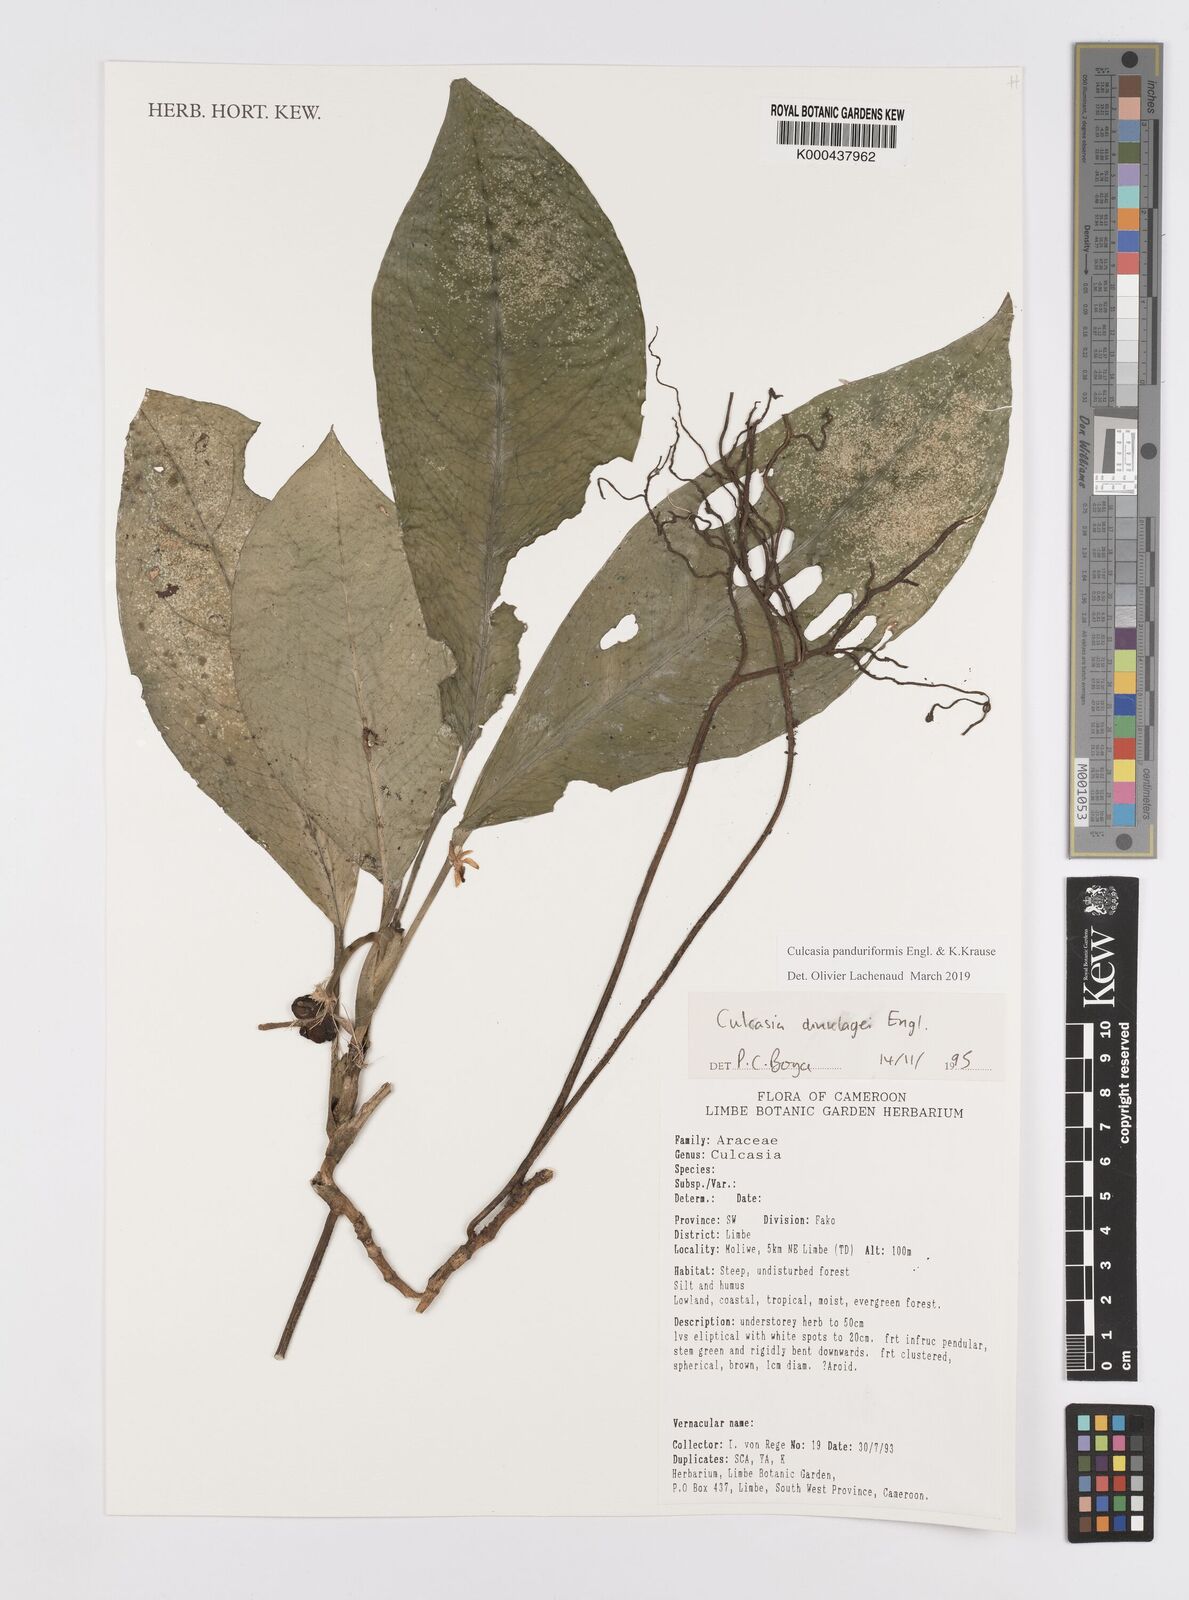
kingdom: Plantae
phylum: Tracheophyta
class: Liliopsida
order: Alismatales
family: Araceae
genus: Culcasia
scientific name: Culcasia panduriformis
